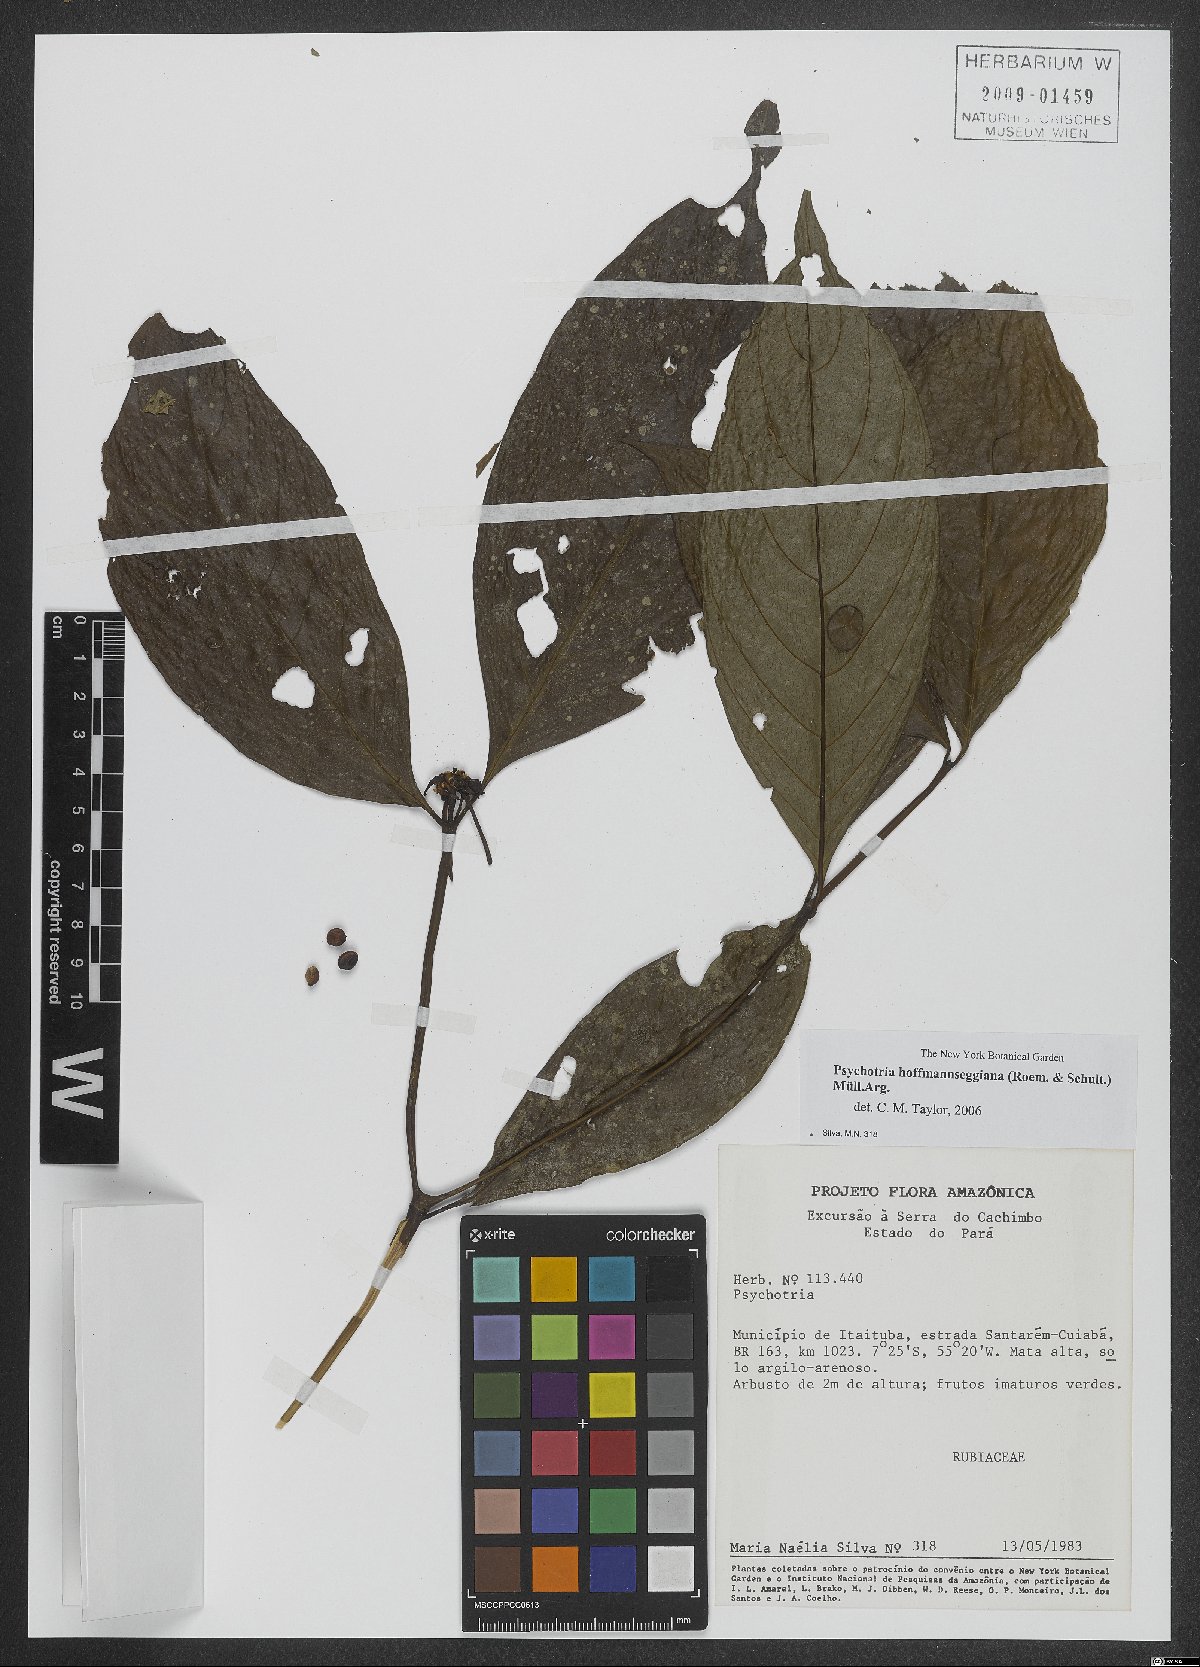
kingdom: Plantae
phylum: Tracheophyta
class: Magnoliopsida
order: Gentianales
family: Rubiaceae
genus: Palicourea
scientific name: Palicourea hoffmannseggiana
